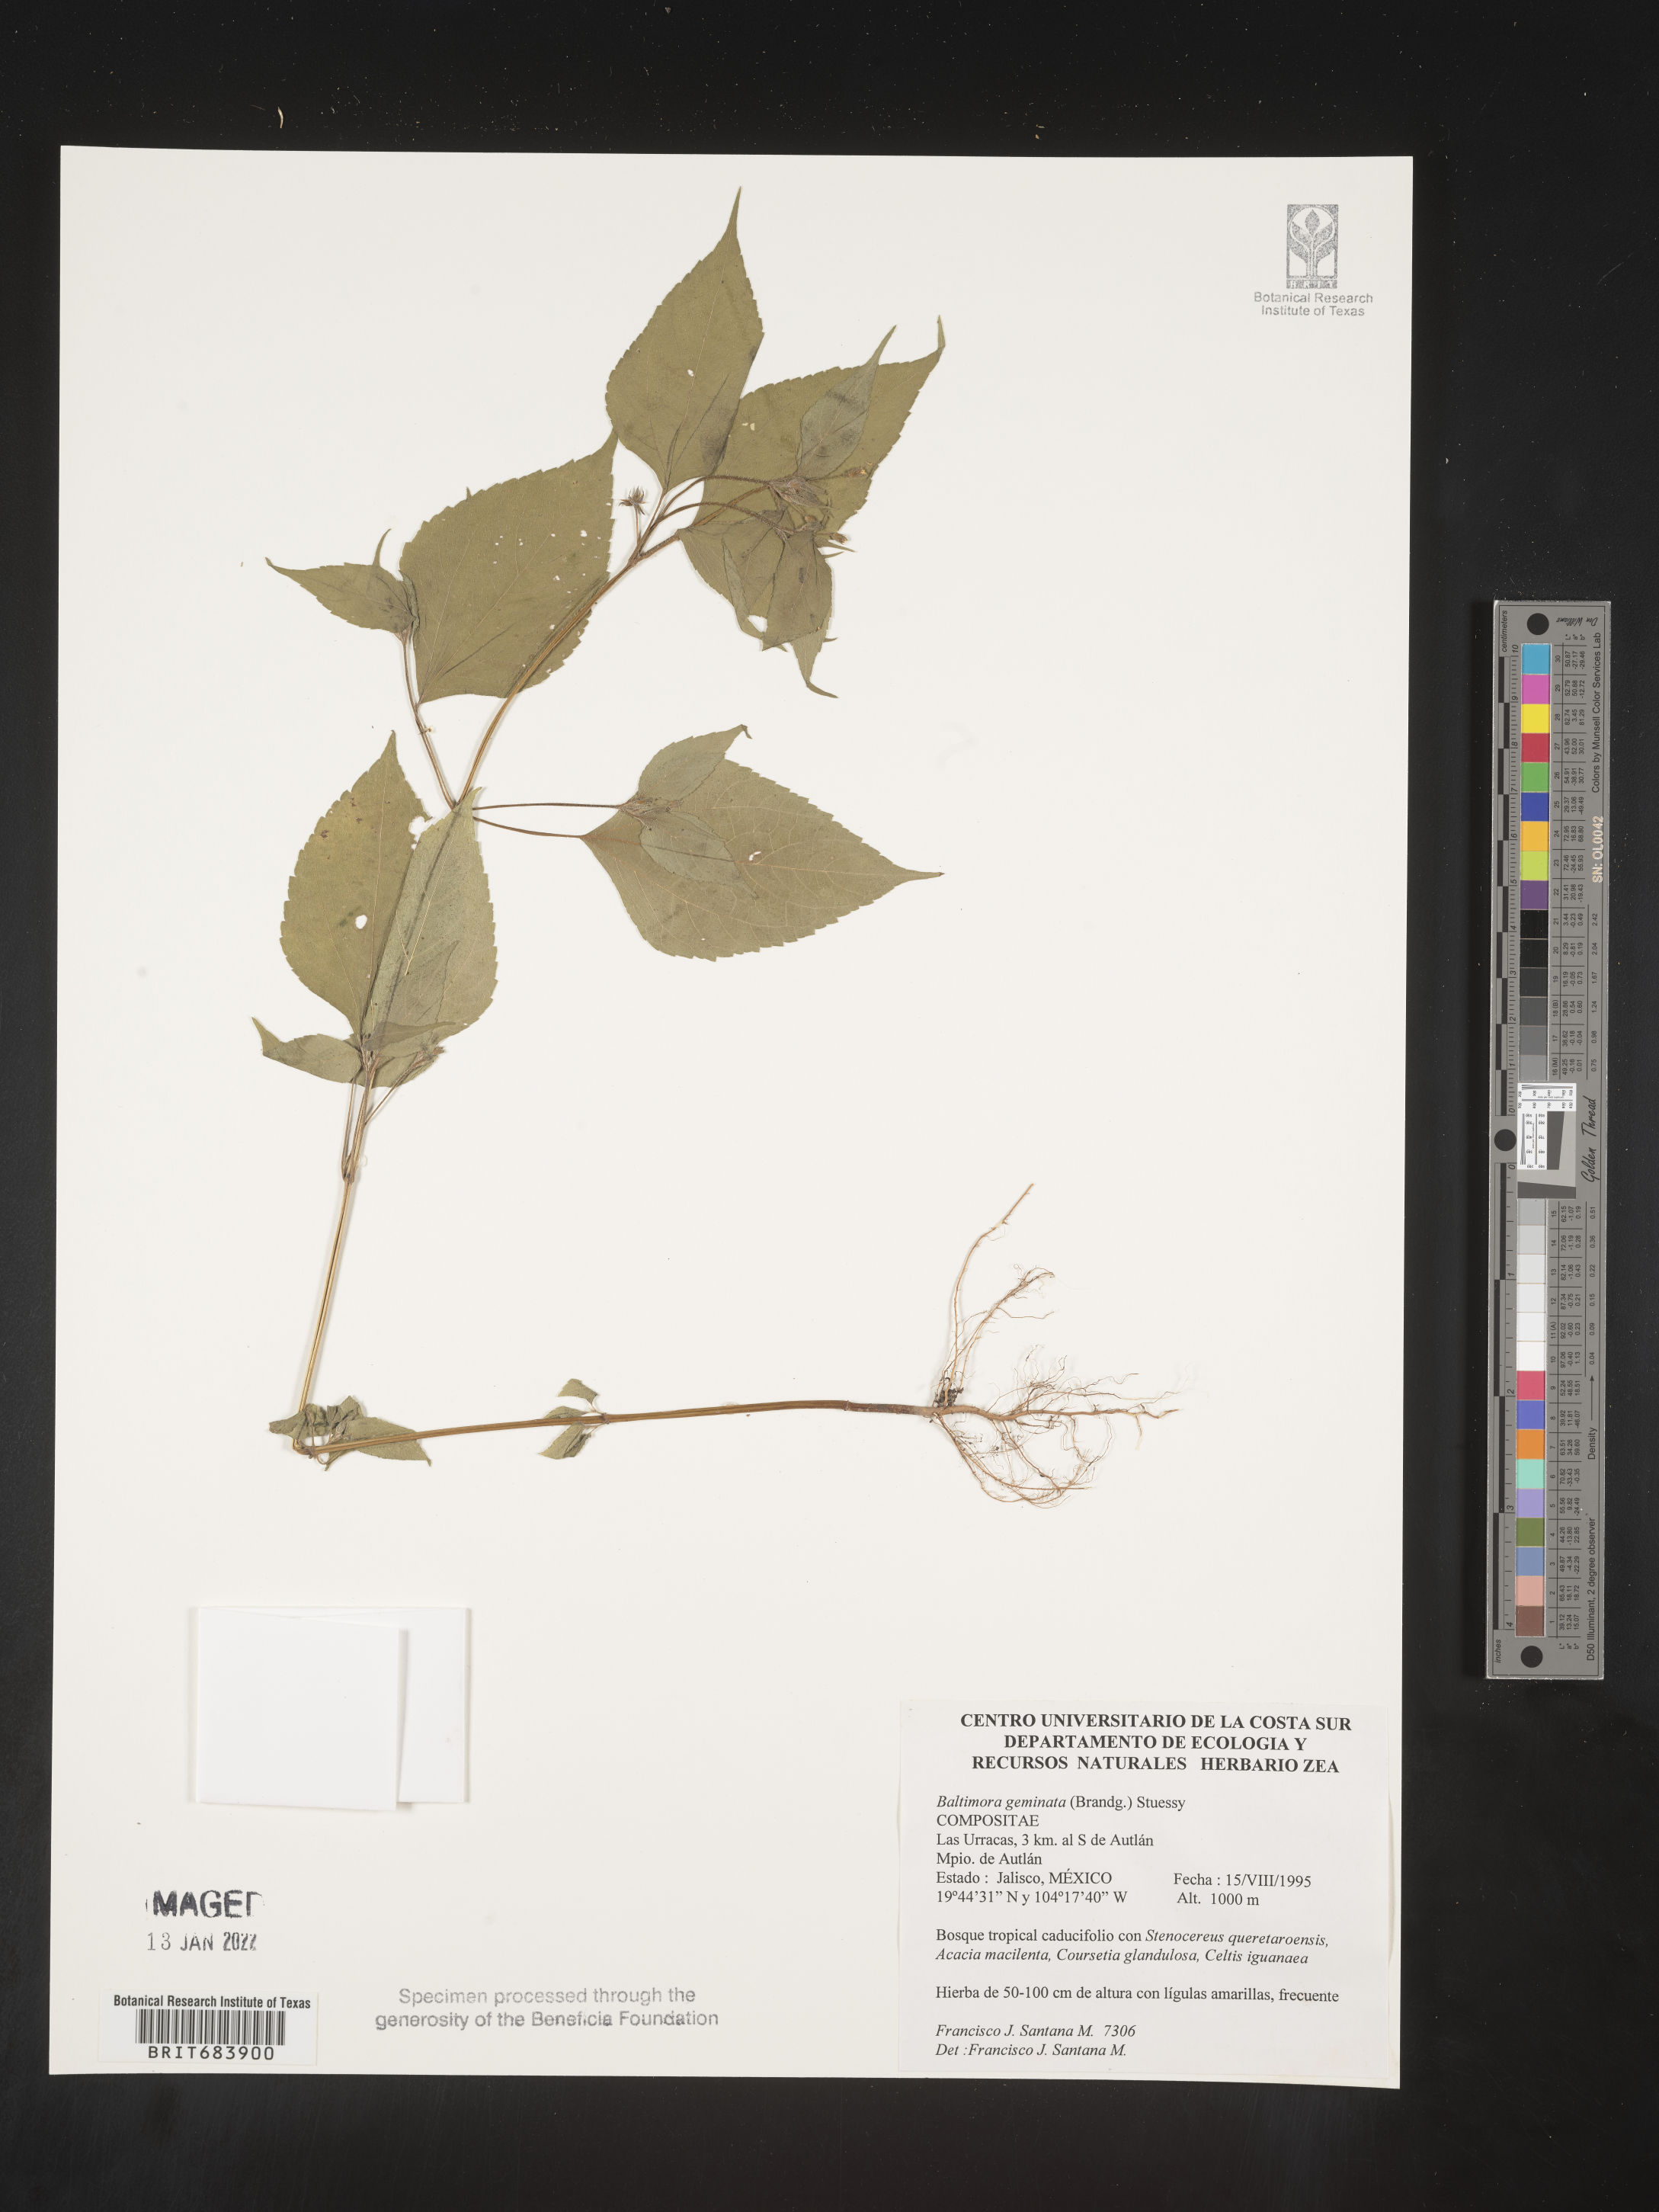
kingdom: Plantae
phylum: Tracheophyta
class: Magnoliopsida
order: Asterales
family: Asteraceae
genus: Baltimora
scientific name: Baltimora
